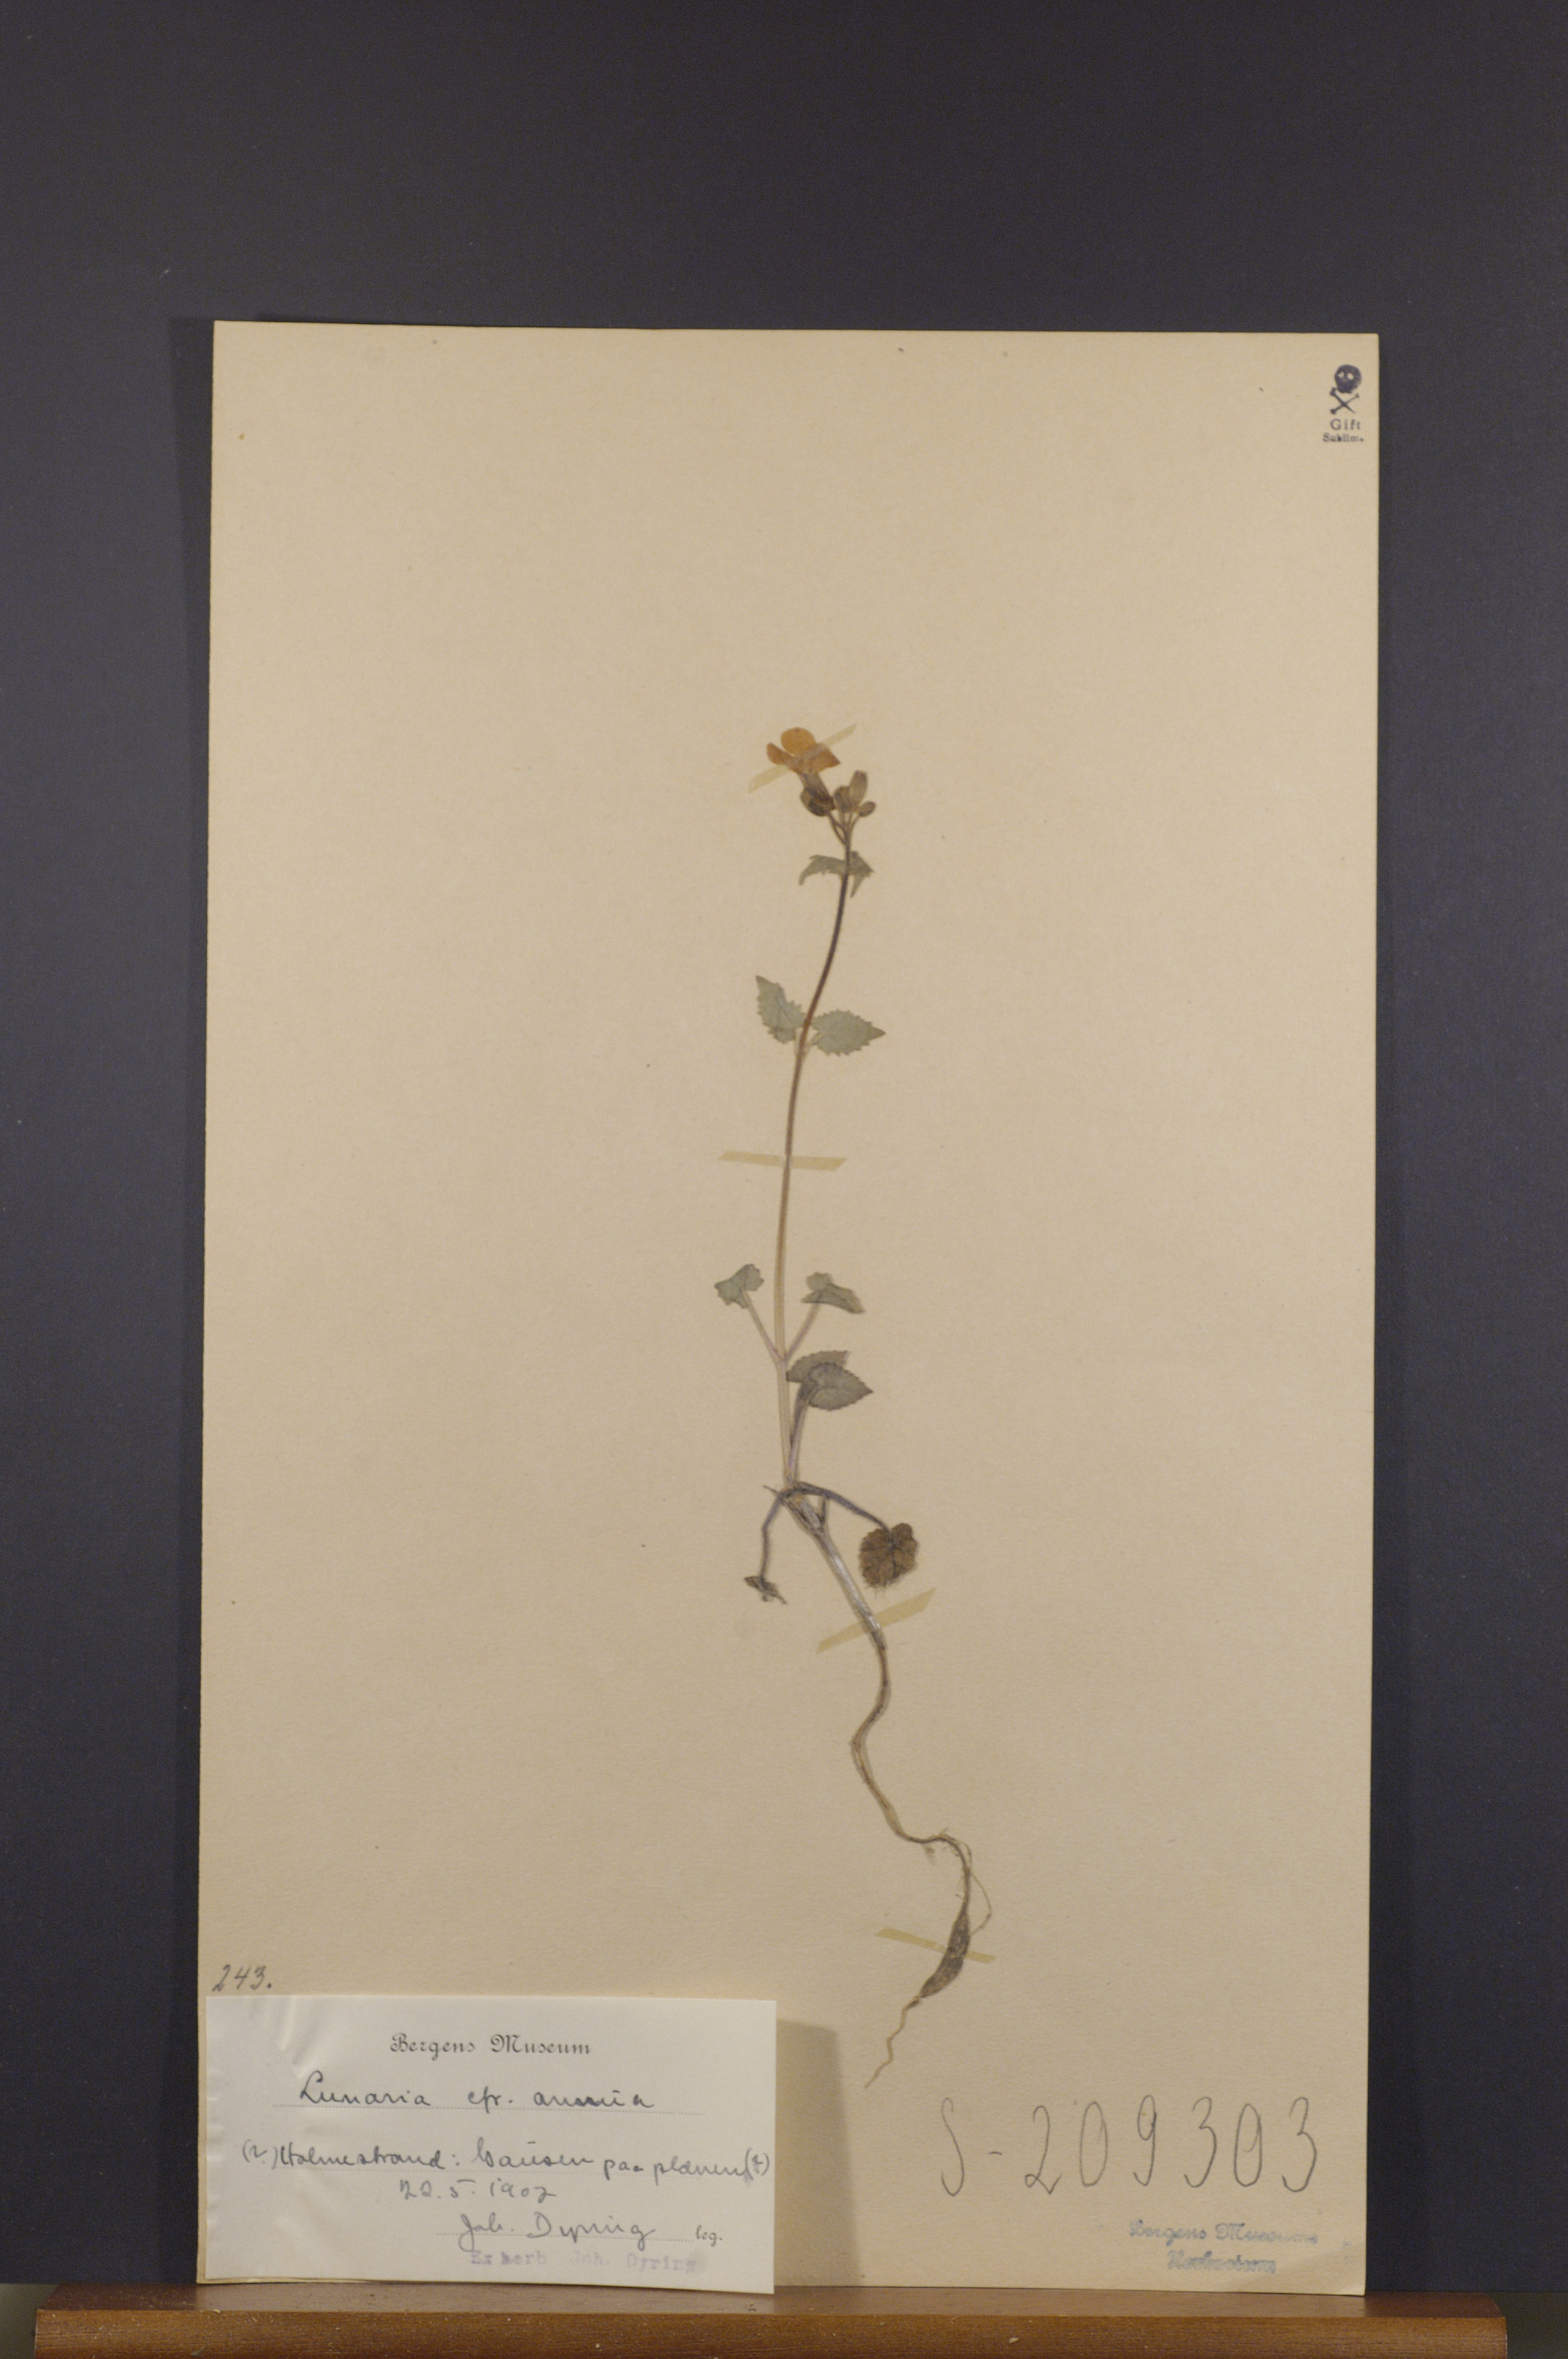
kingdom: Plantae
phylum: Tracheophyta
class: Magnoliopsida
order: Brassicales
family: Brassicaceae
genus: Lunaria
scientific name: Lunaria annua
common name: Honesty
